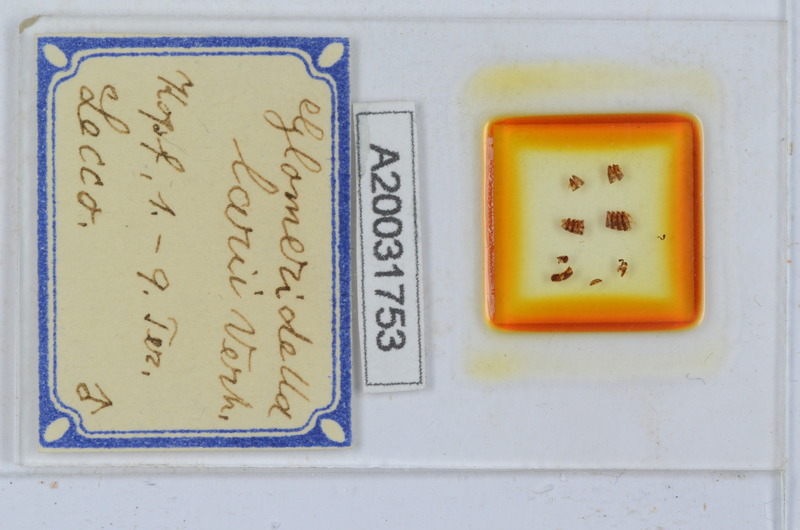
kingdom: Animalia
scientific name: Animalia
